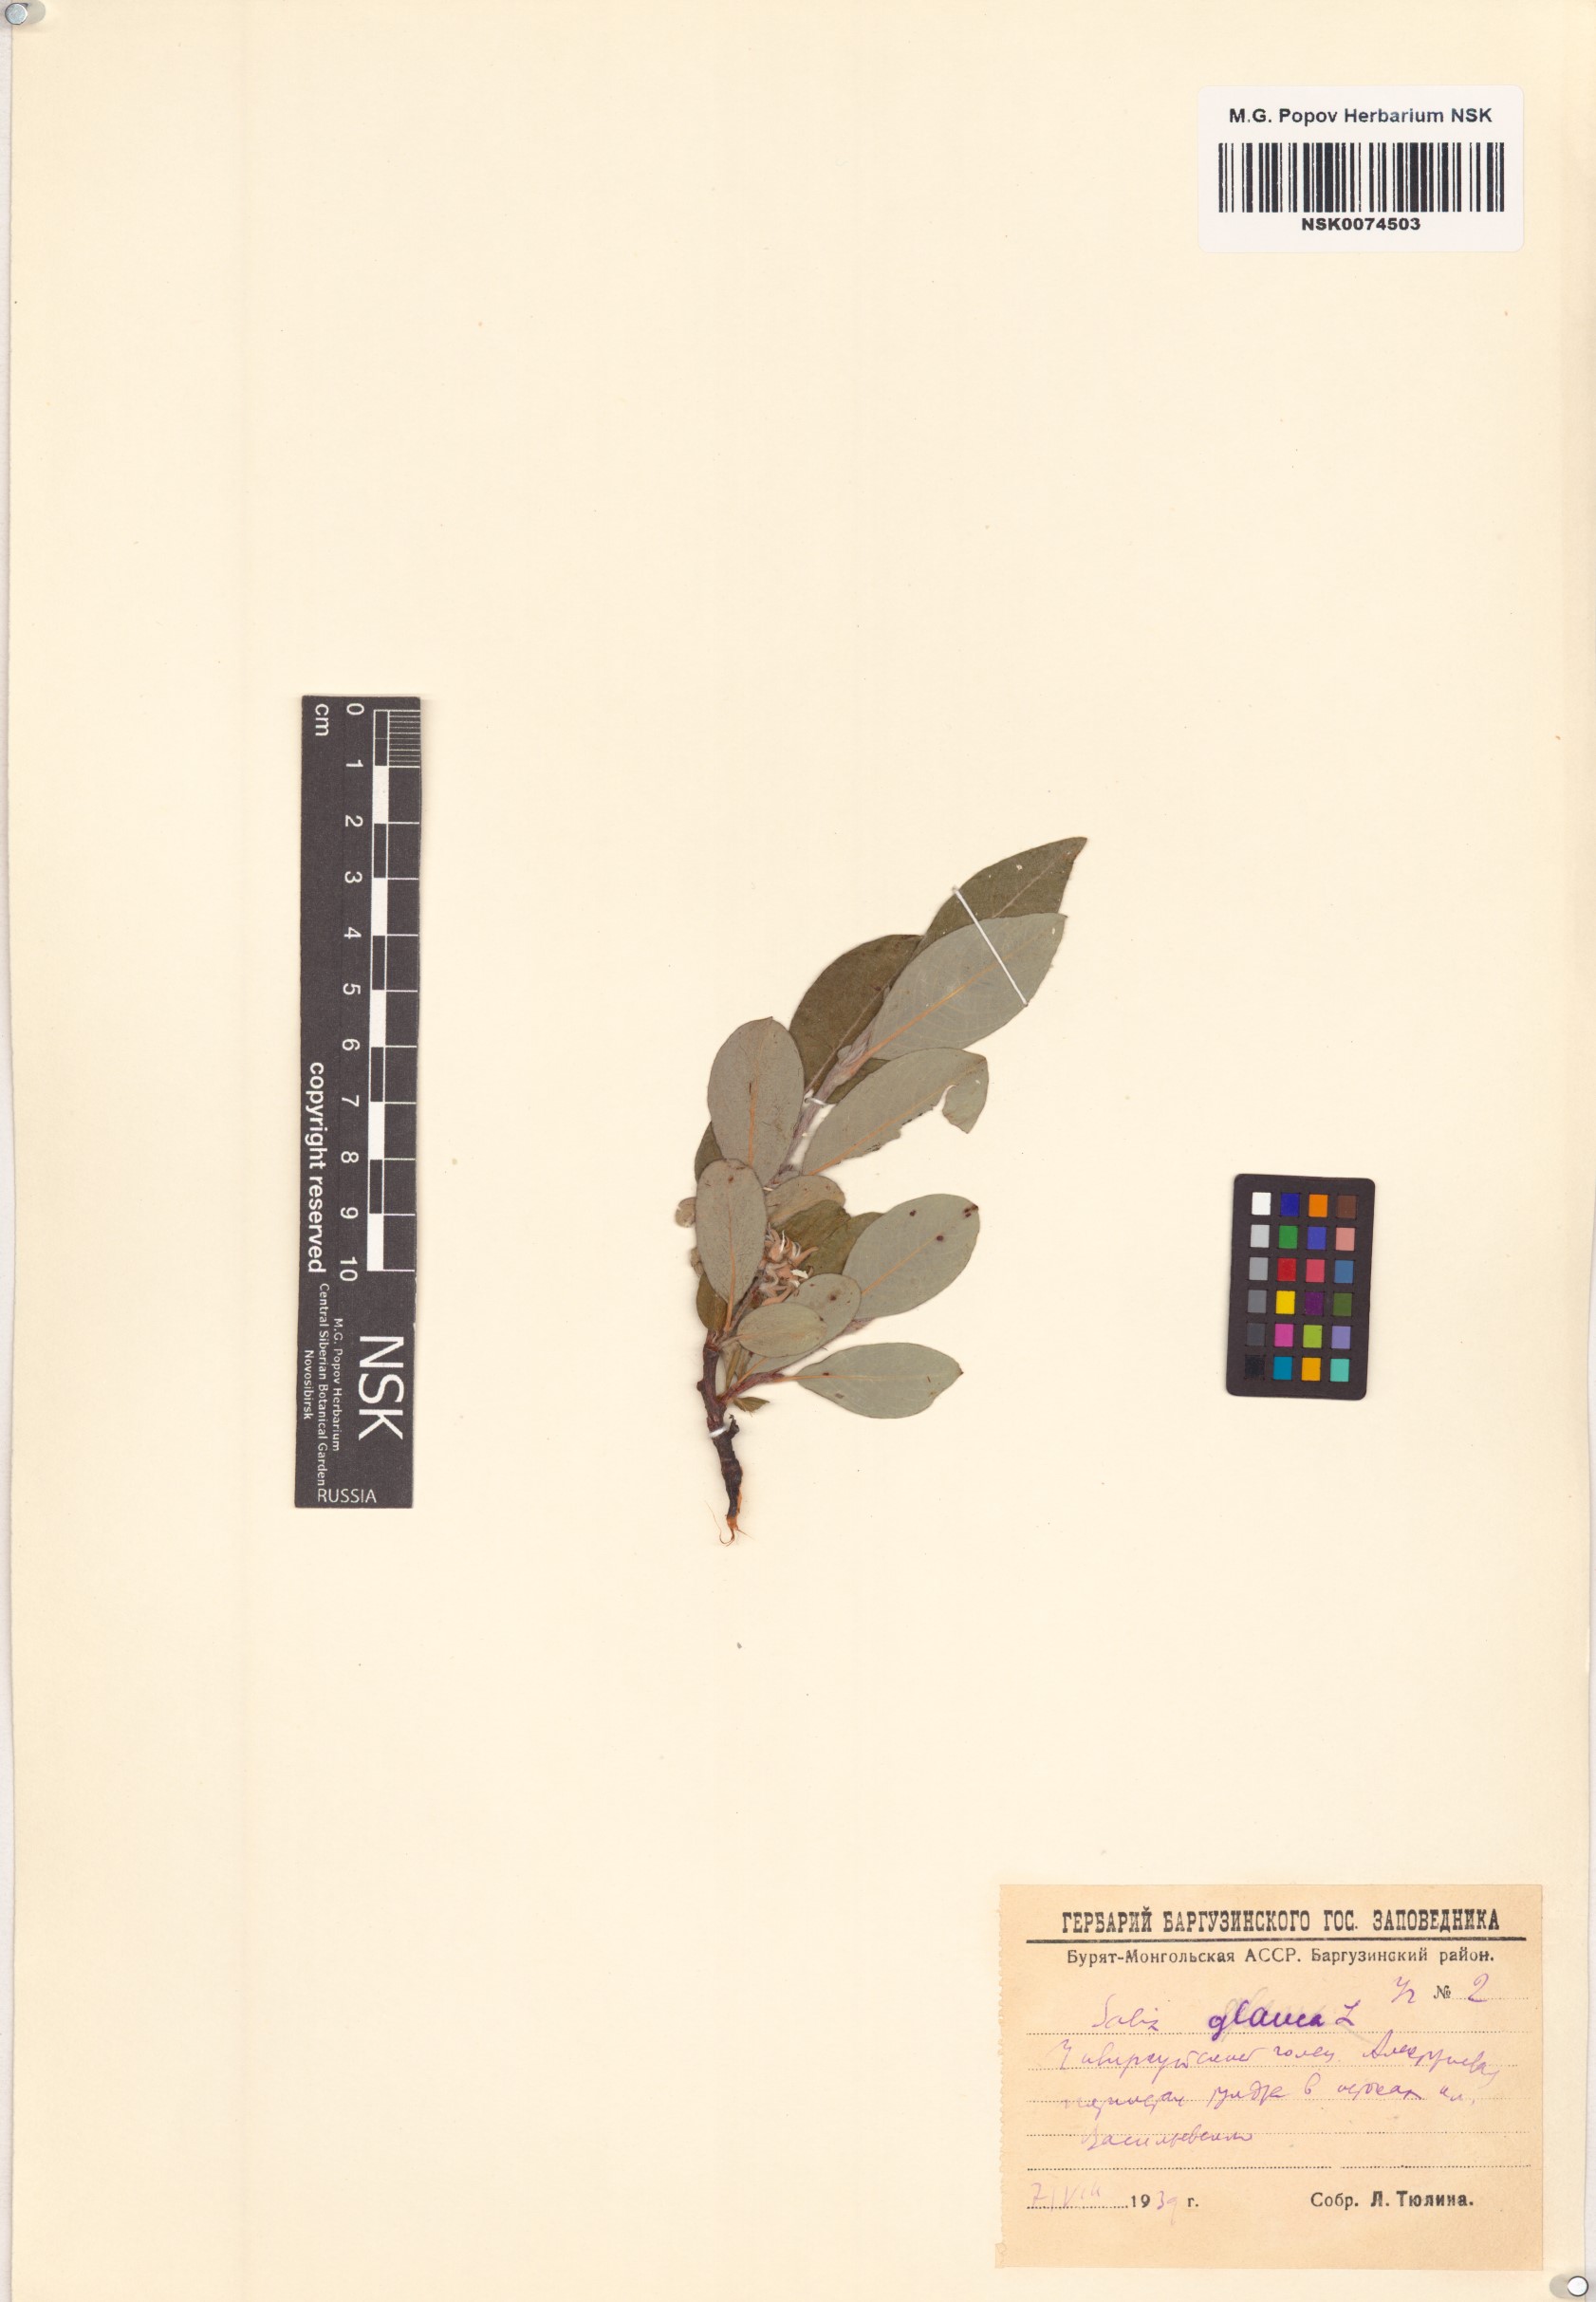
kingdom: Plantae
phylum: Tracheophyta
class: Magnoliopsida
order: Malpighiales
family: Salicaceae
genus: Salix
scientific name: Salix glauca
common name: Glaucous willow
